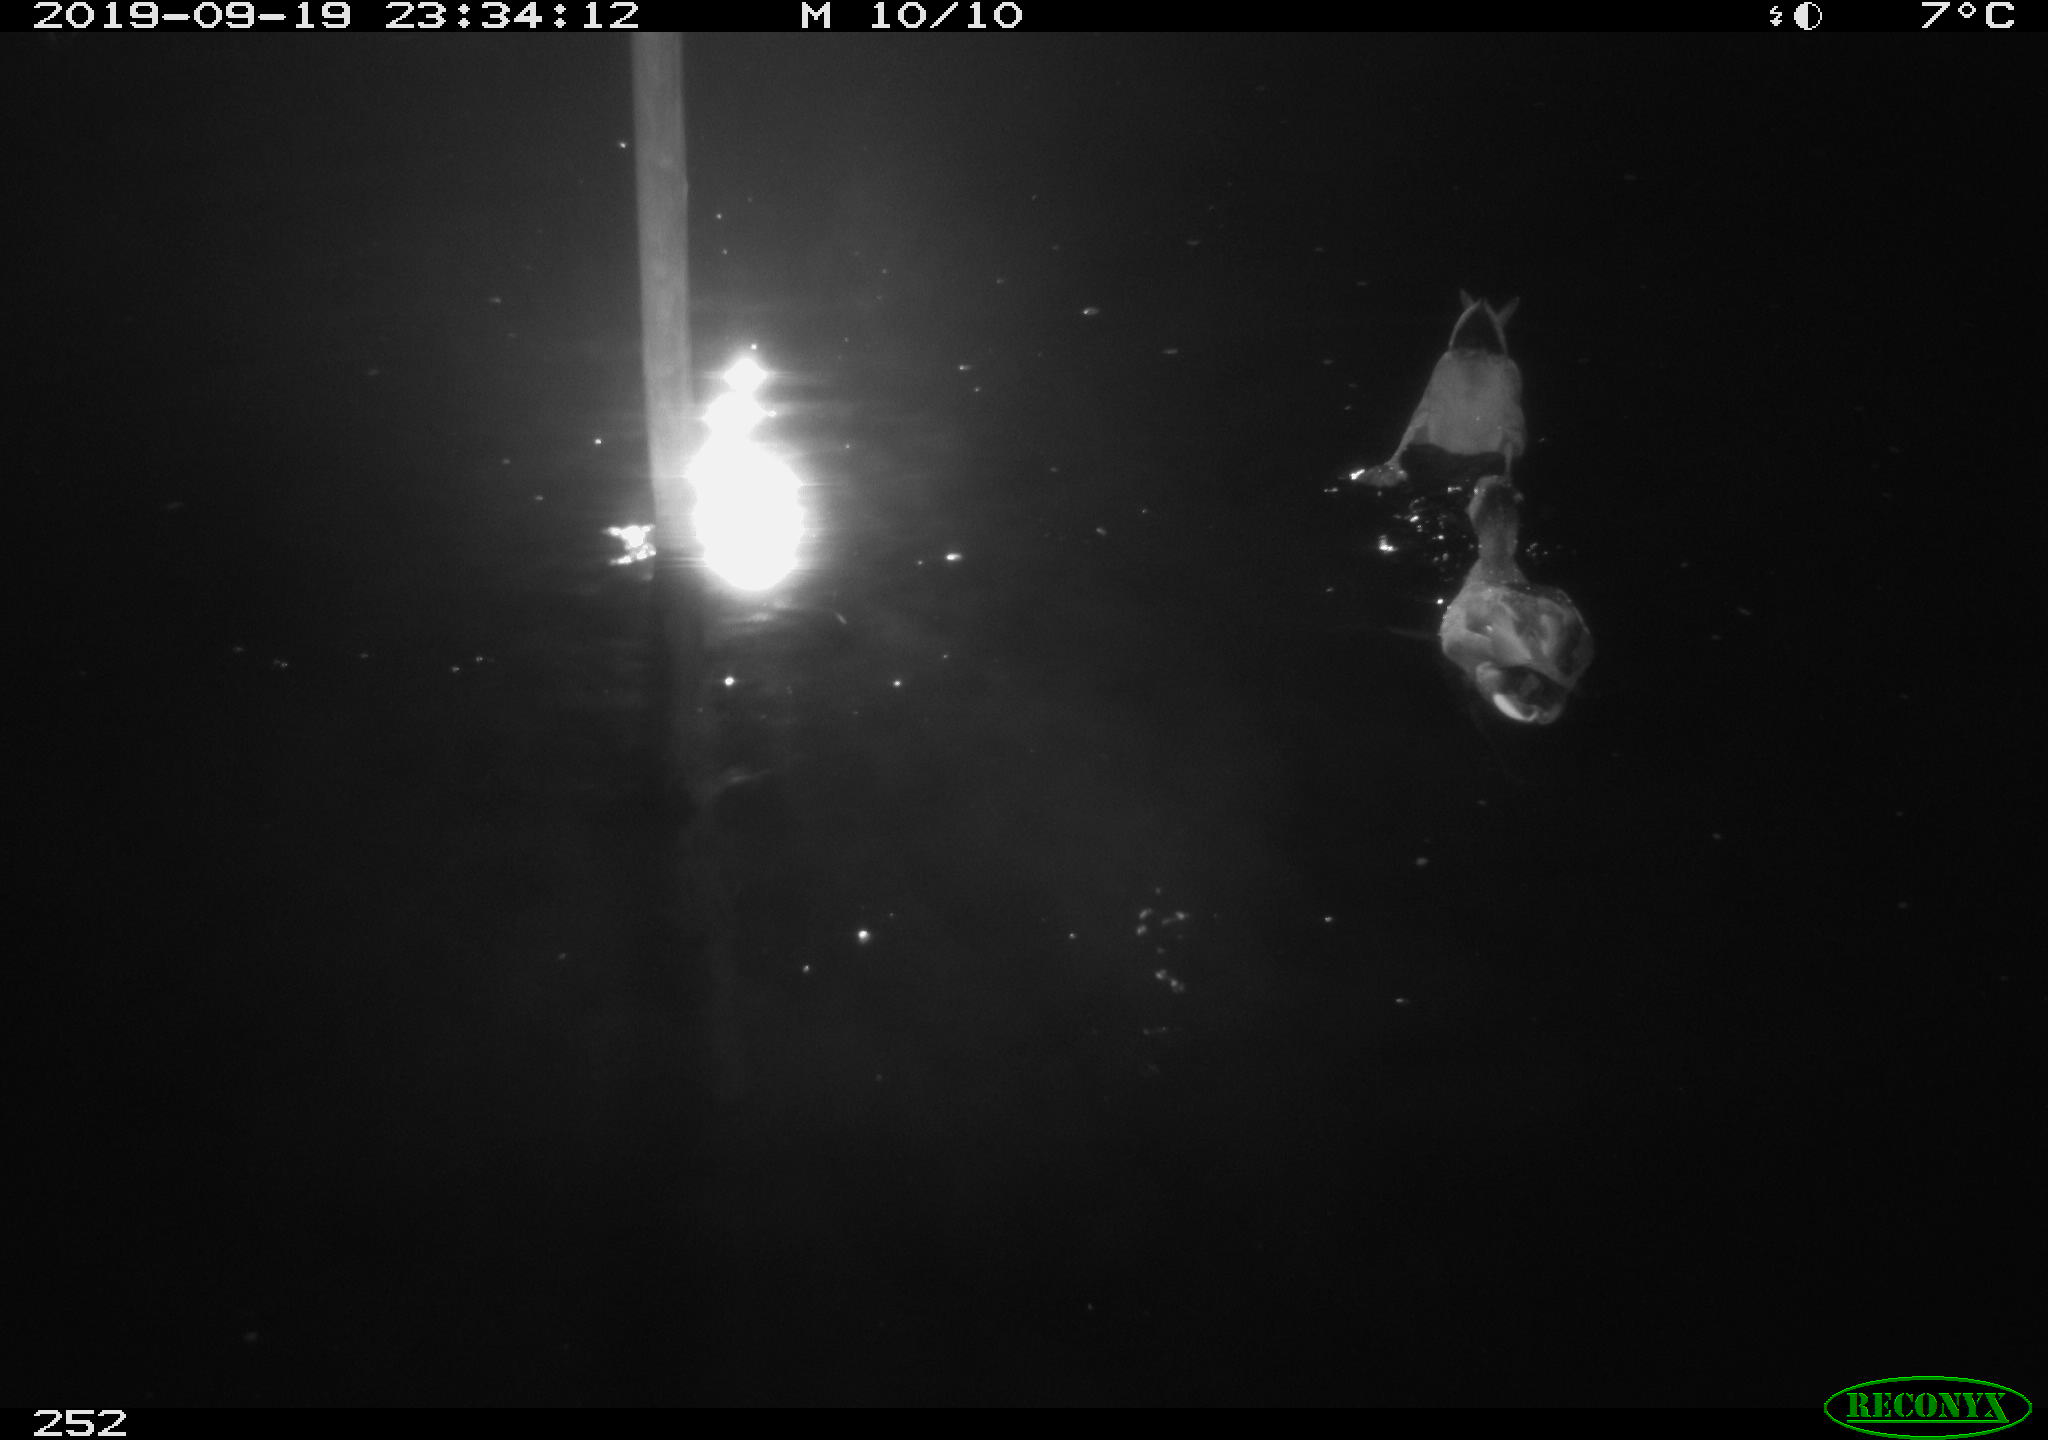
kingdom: Animalia
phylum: Chordata
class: Aves
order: Anseriformes
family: Anatidae
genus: Anas
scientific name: Anas platyrhynchos
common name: Mallard
